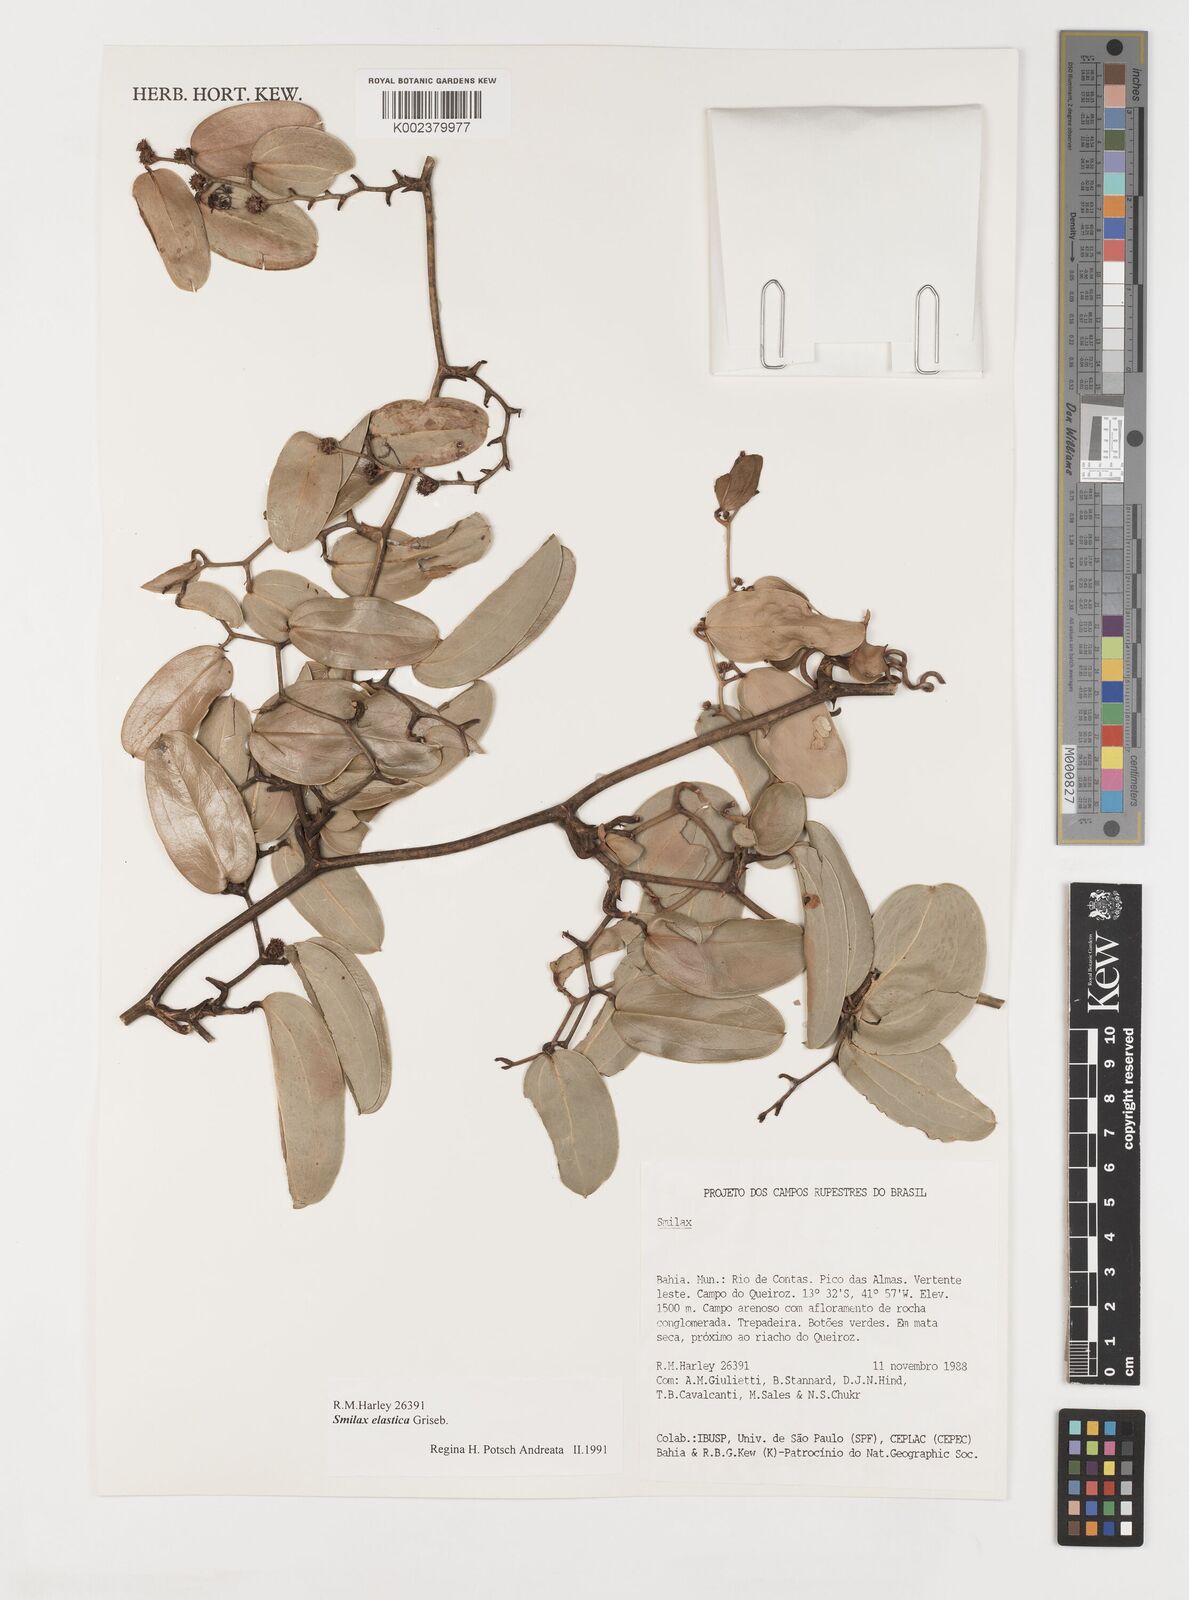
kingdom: Plantae
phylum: Tracheophyta
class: Liliopsida
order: Liliales
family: Smilacaceae
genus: Smilax
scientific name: Smilax elastica
